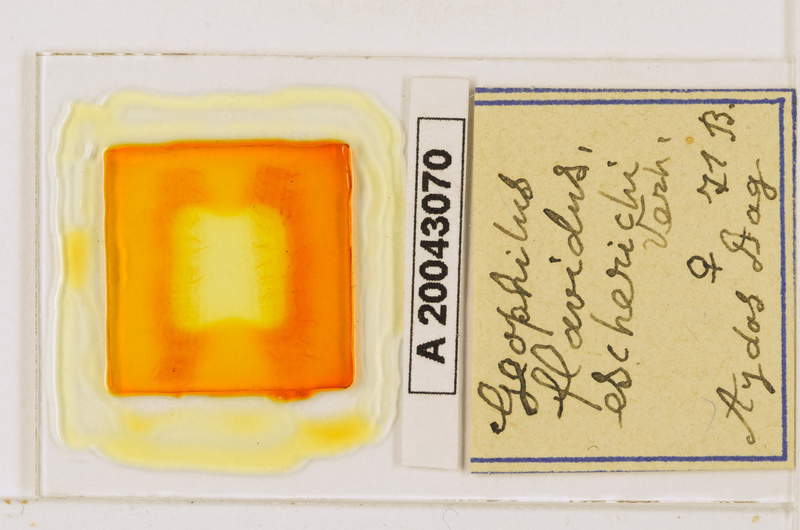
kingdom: Animalia
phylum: Arthropoda
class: Chilopoda
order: Geophilomorpha
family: Geophilidae
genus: Clinopodes
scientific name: Clinopodes flavidus
